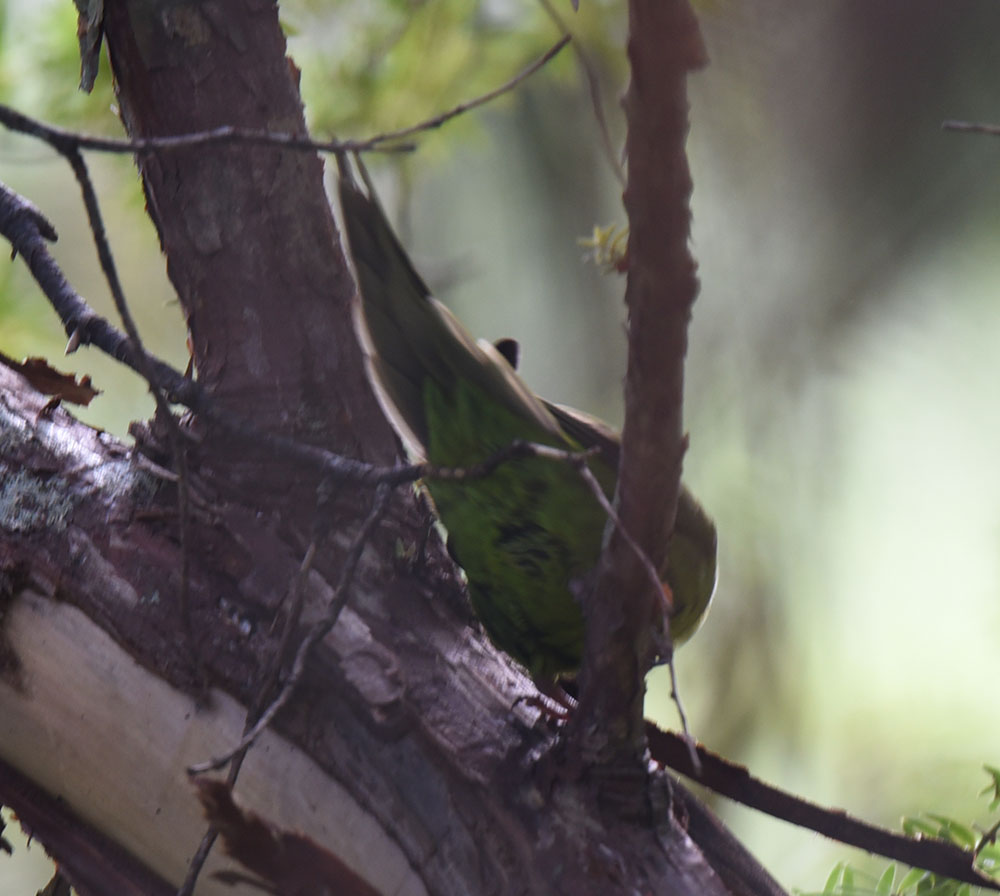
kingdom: Animalia
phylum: Chordata
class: Aves
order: Psittaciformes
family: Psittacidae
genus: Cyanoramphus
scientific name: Cyanoramphus auriceps
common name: Yellow-crowned parakeet
